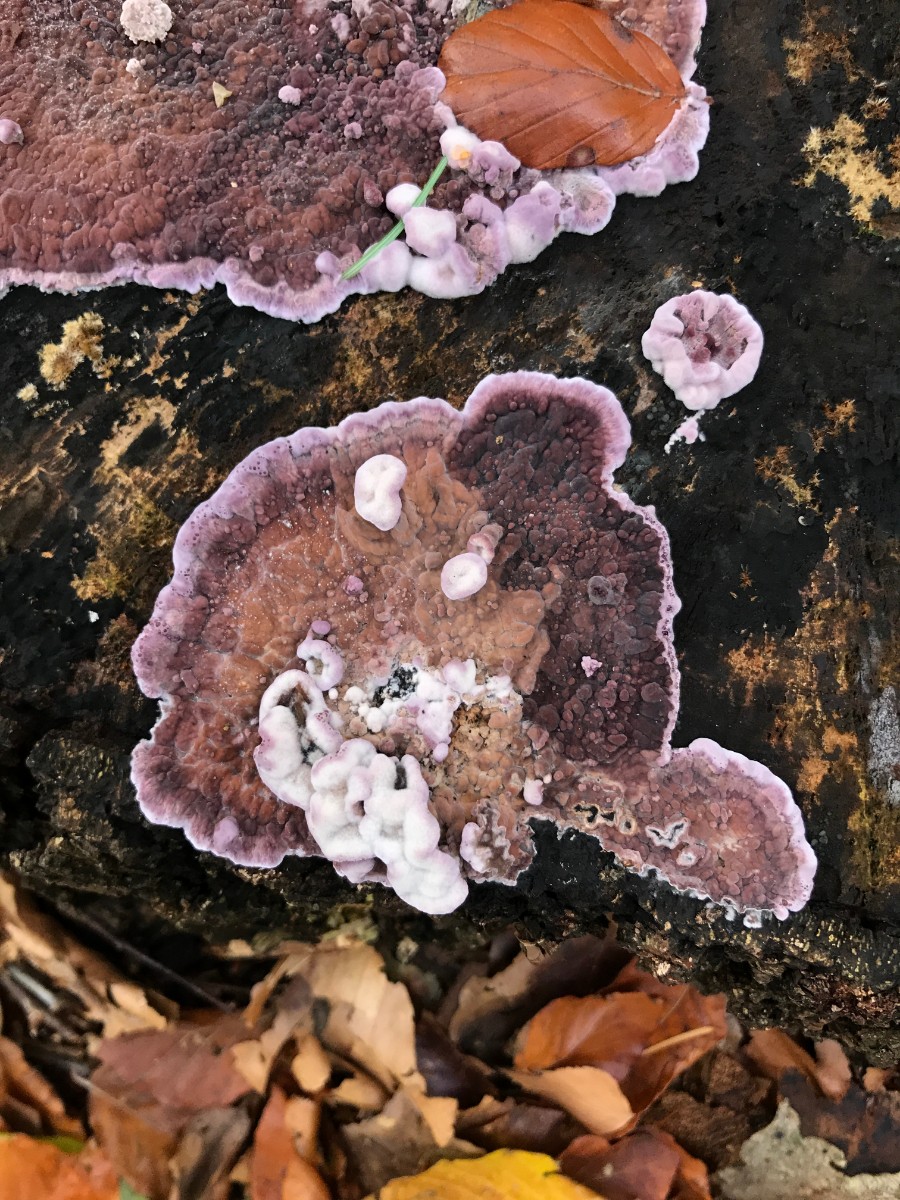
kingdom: Fungi
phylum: Basidiomycota
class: Agaricomycetes
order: Agaricales
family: Cyphellaceae
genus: Chondrostereum
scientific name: Chondrostereum purpureum
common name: purpurlædersvamp
